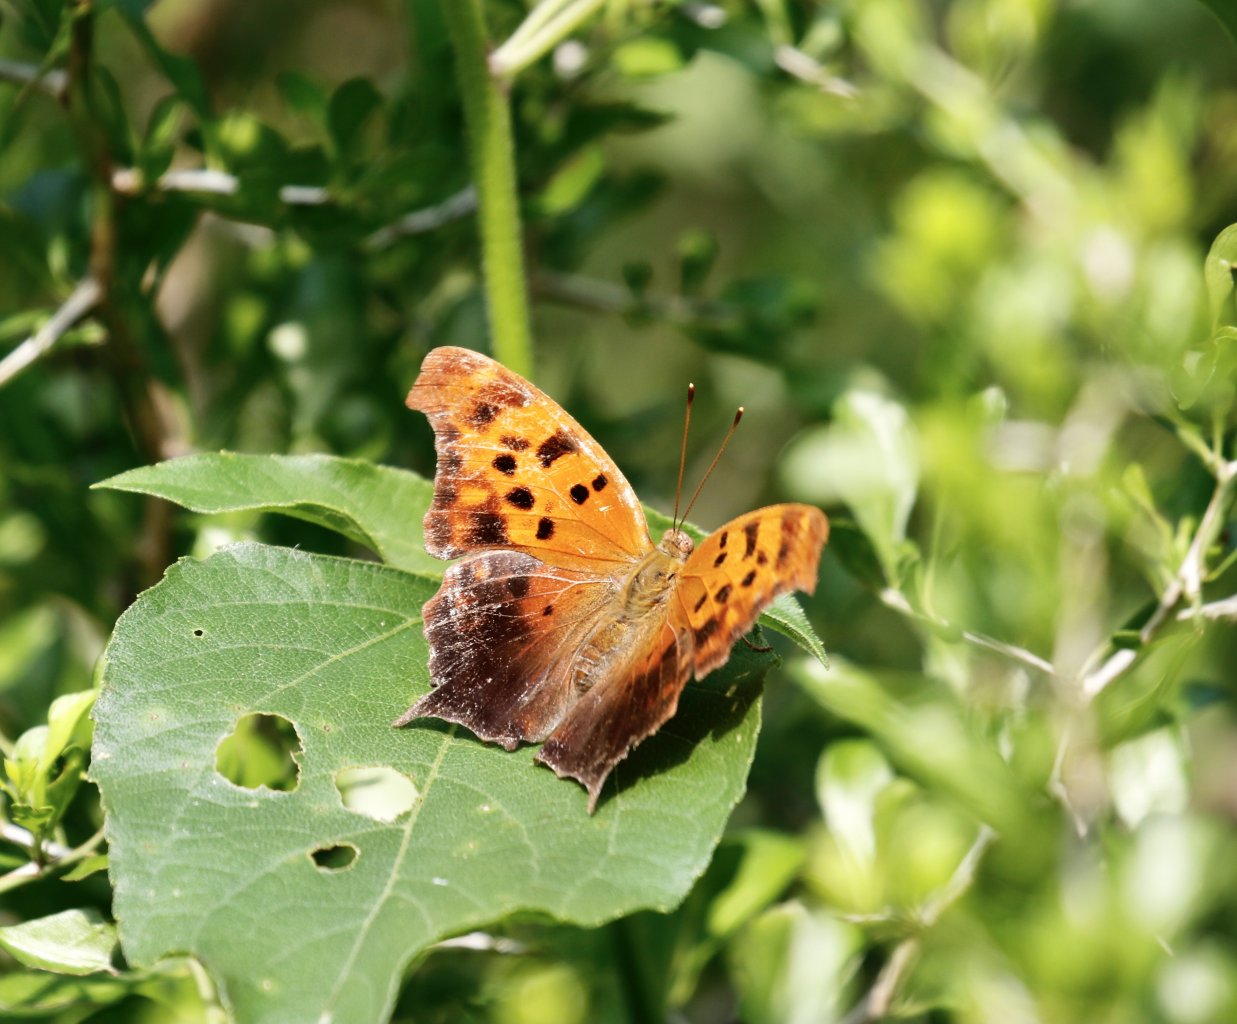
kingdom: Animalia
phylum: Arthropoda
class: Insecta
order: Lepidoptera
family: Nymphalidae
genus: Polygonia
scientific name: Polygonia interrogationis
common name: Question Mark
